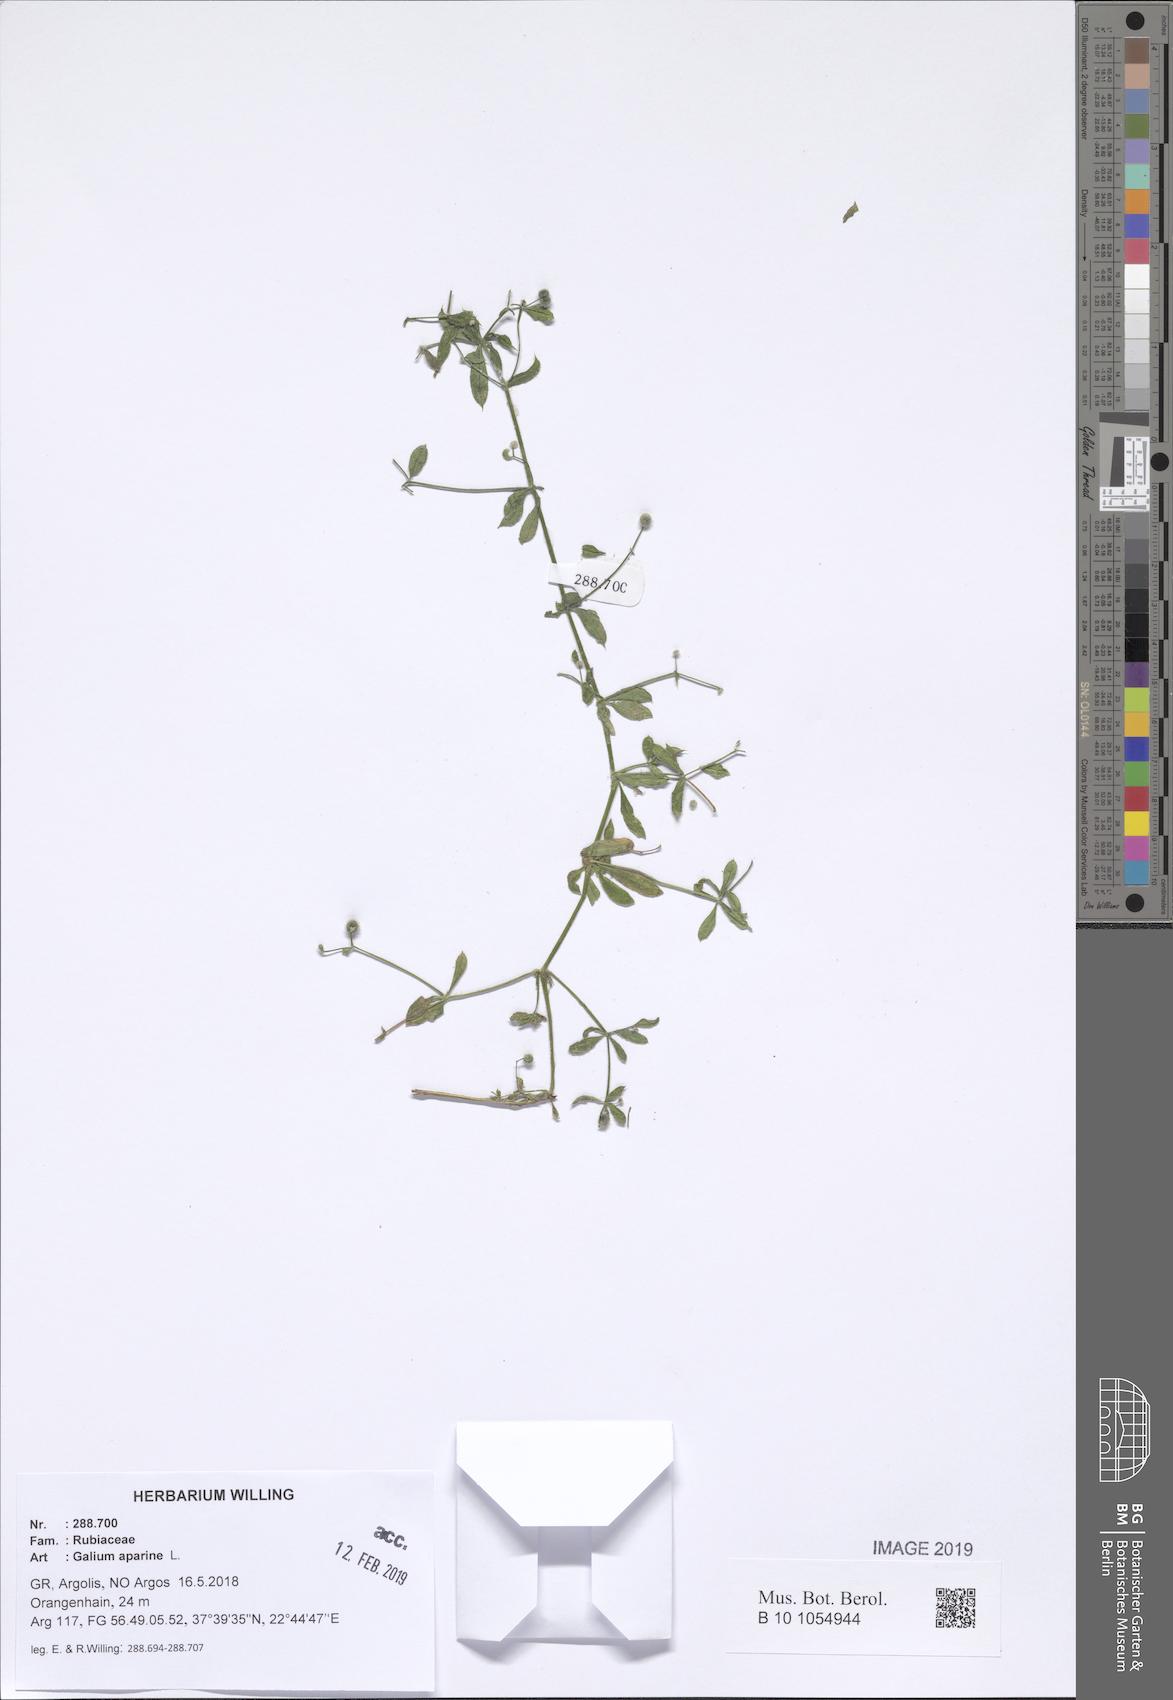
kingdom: Plantae
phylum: Tracheophyta
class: Magnoliopsida
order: Gentianales
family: Rubiaceae
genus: Galium
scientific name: Galium aparine
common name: Cleavers
